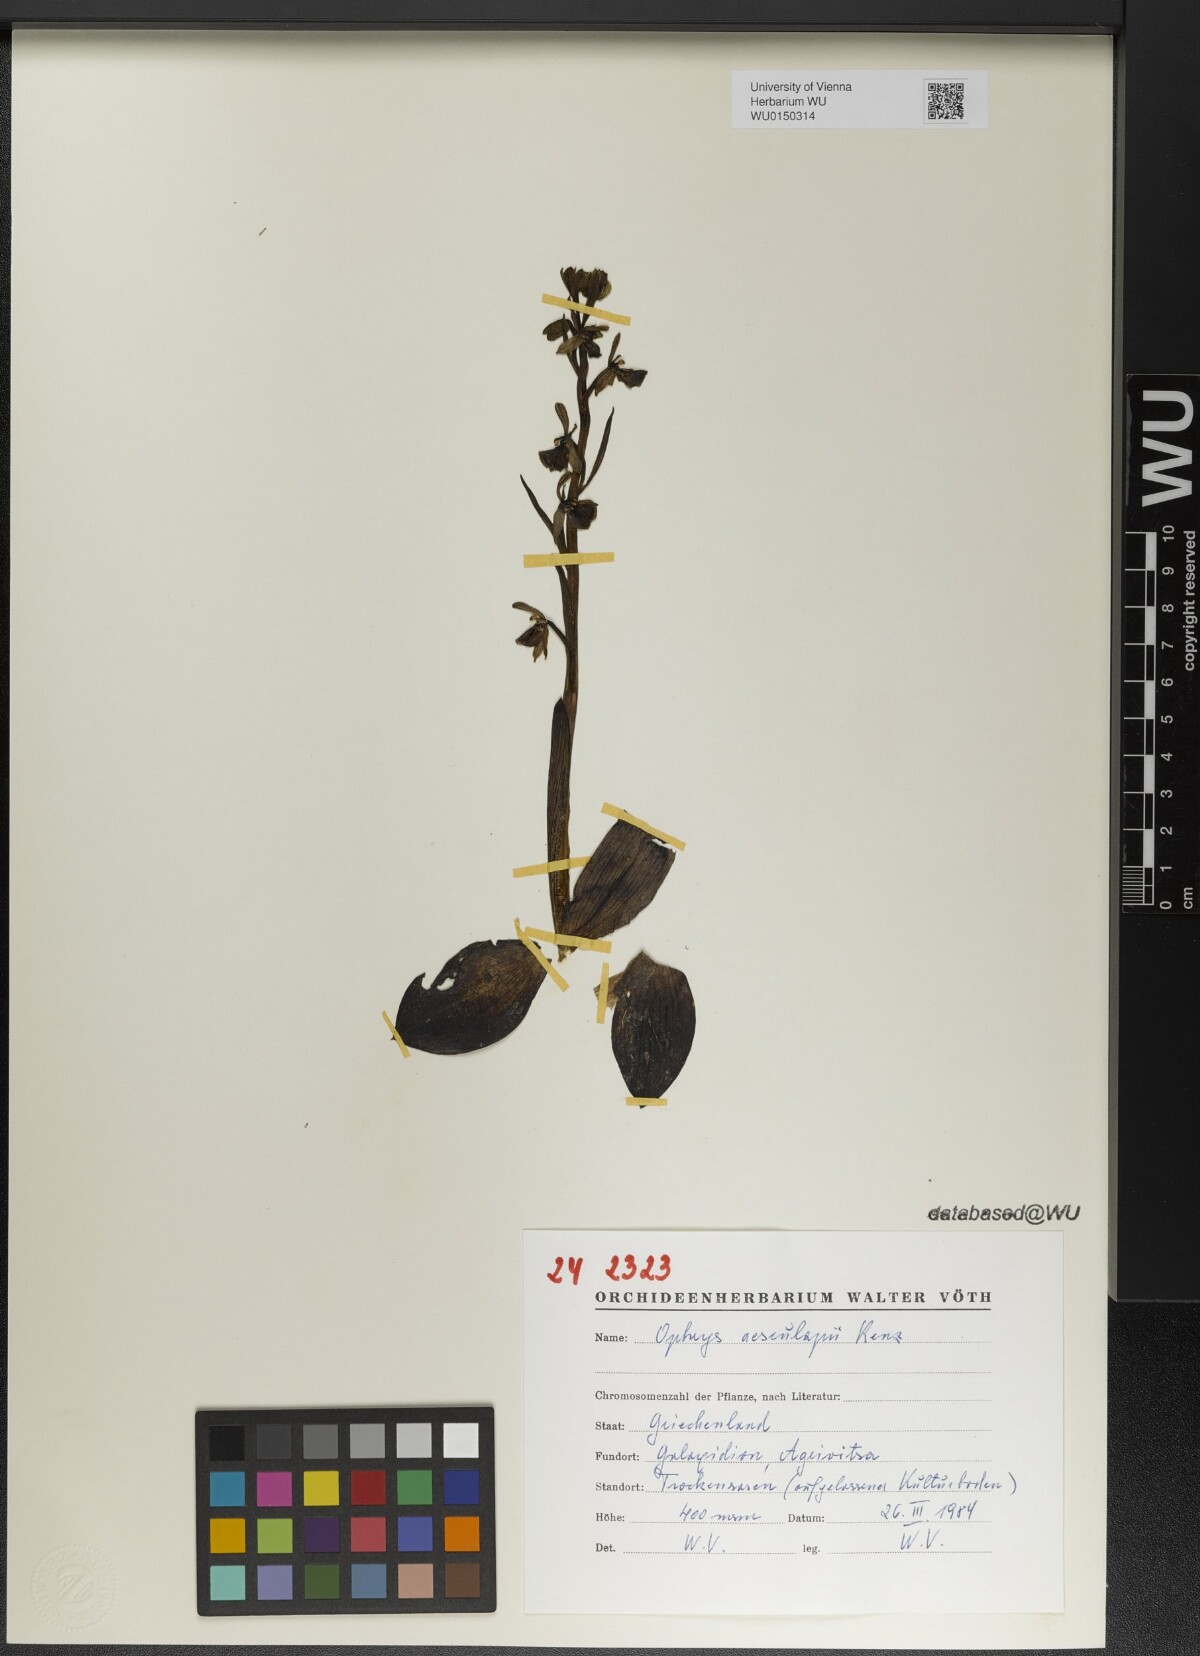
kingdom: Plantae
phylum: Tracheophyta
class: Liliopsida
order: Asparagales
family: Orchidaceae
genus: Ophrys
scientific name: Ophrys sphegodes
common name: Early spider-orchid
